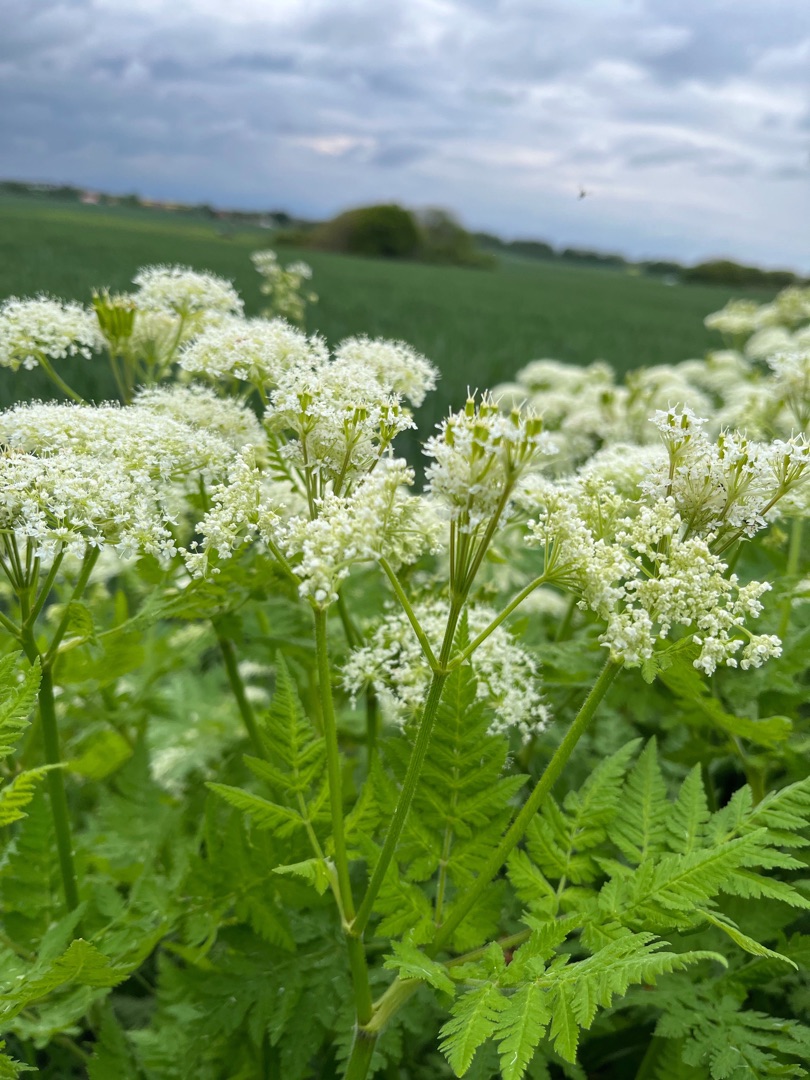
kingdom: Plantae
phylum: Tracheophyta
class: Magnoliopsida
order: Apiales
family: Apiaceae
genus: Myrrhis
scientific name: Myrrhis odorata
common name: Sødskærm
